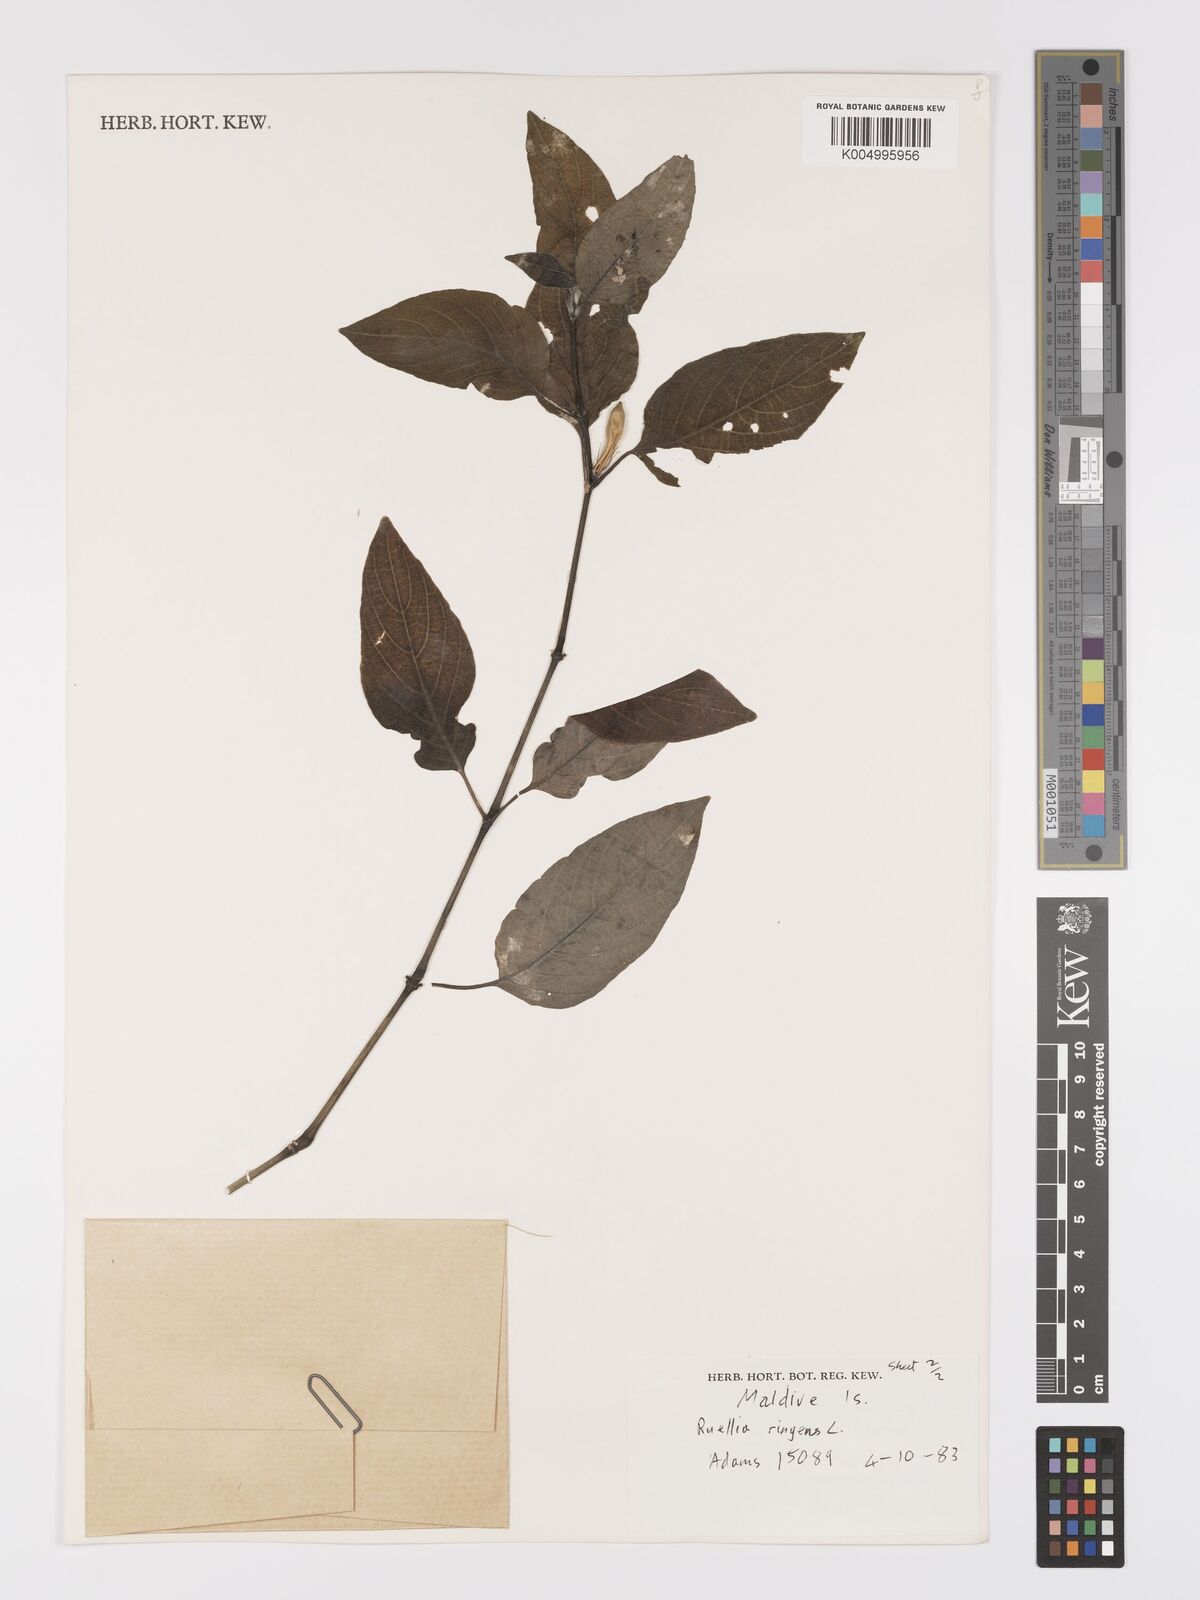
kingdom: Plantae
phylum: Tracheophyta
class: Magnoliopsida
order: Lamiales
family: Acanthaceae
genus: Ruellia
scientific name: Ruellia
